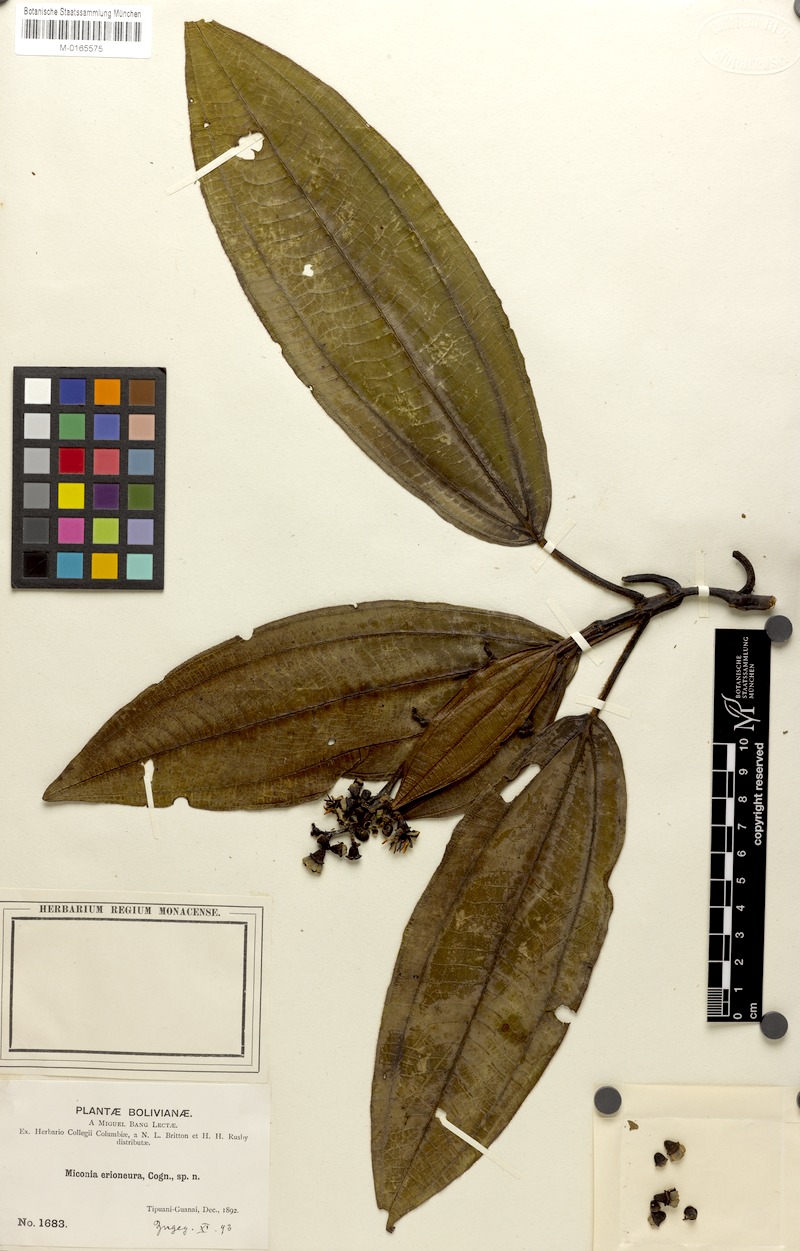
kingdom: Plantae
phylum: Tracheophyta
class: Magnoliopsida
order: Myrtales
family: Melastomataceae
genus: Miconia
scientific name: Miconia erioneura
